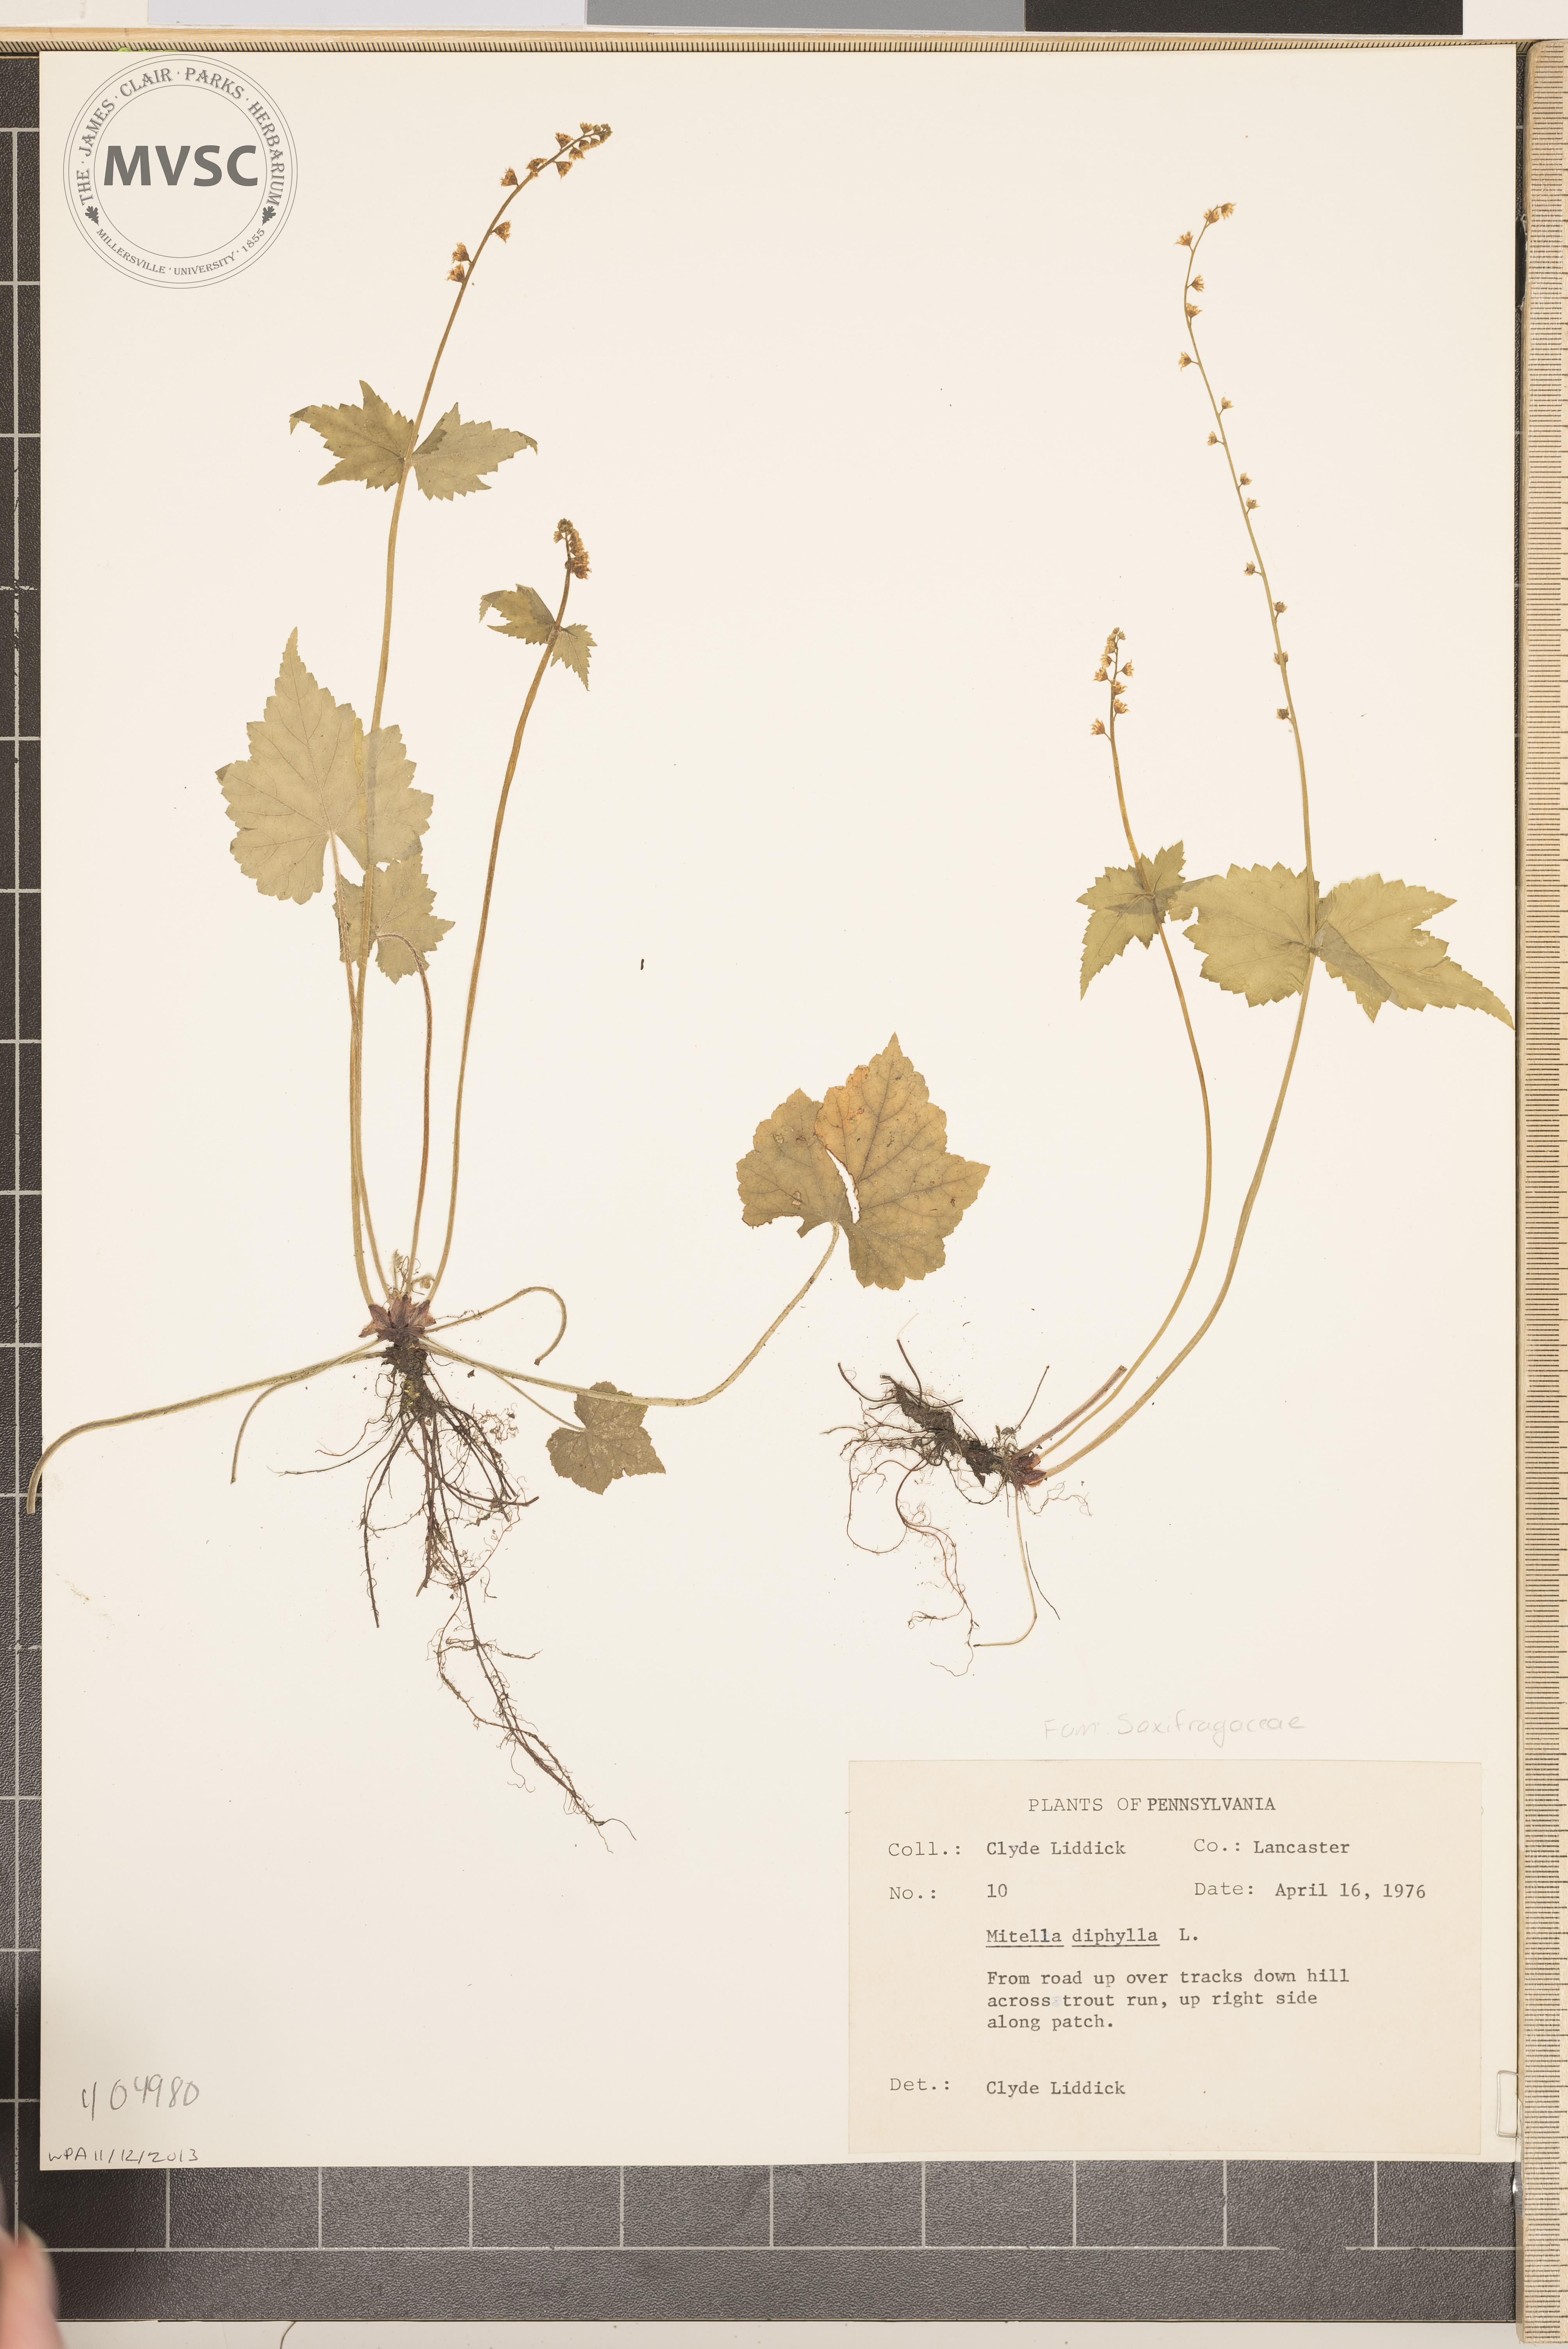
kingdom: Plantae
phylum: Tracheophyta
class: Magnoliopsida
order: Saxifragales
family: Saxifragaceae
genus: Mitella
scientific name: Mitella diphylla
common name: Coolwort
